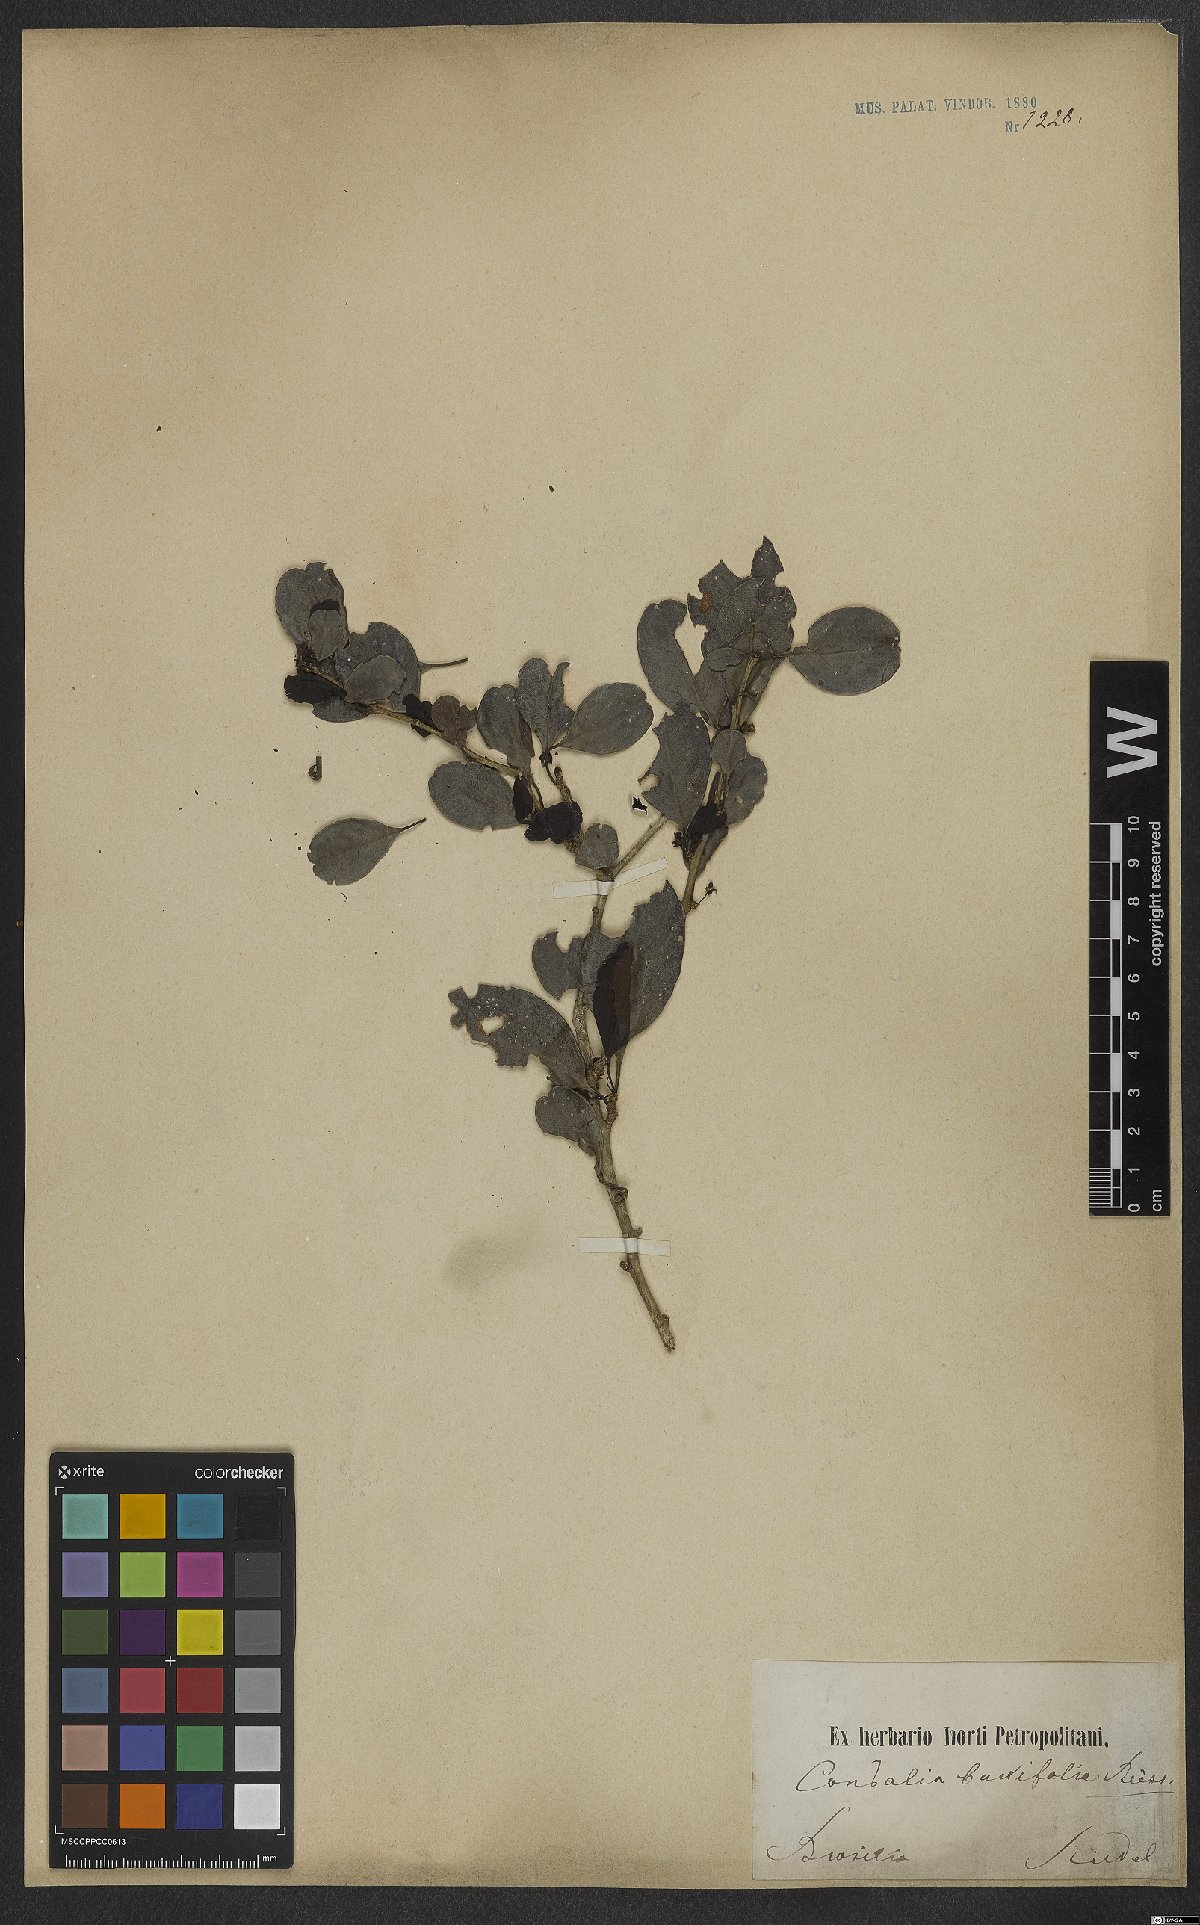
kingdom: Plantae
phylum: Tracheophyta
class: Magnoliopsida
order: Rosales
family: Rhamnaceae
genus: Condalia
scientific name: Condalia buxifolia
